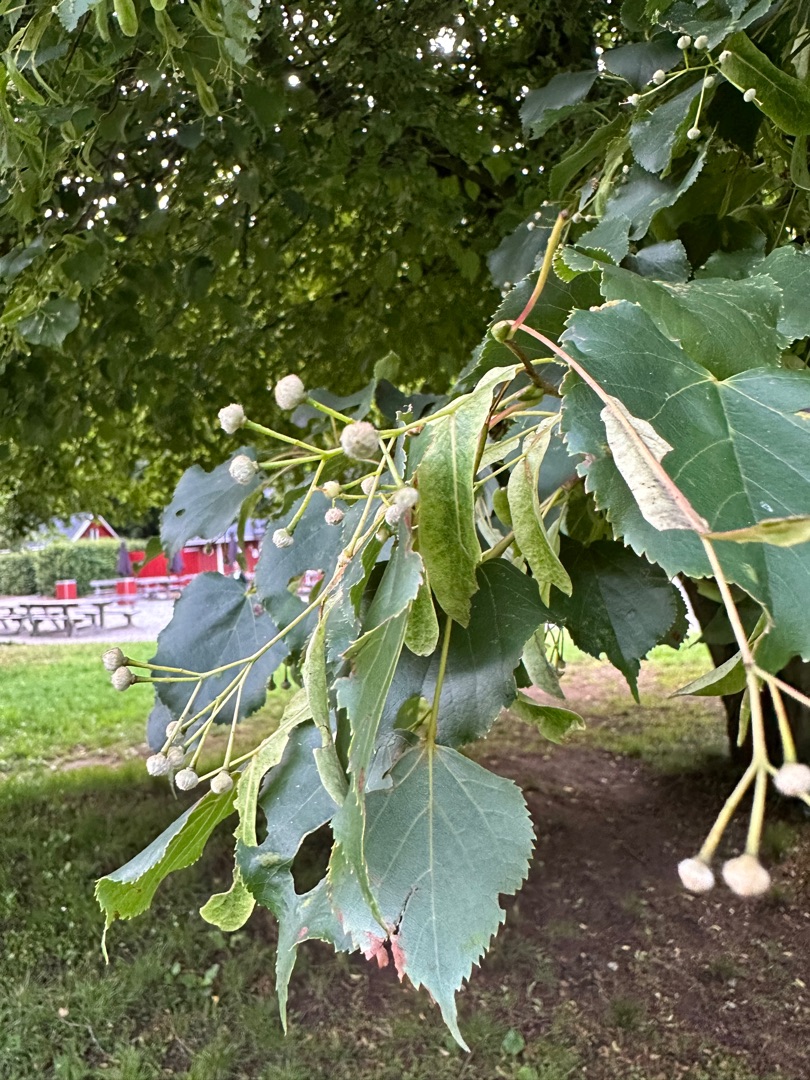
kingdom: Plantae
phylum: Tracheophyta
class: Magnoliopsida
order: Malvales
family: Malvaceae
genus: Tilia
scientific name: Tilia cordata
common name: Småbladet lind
